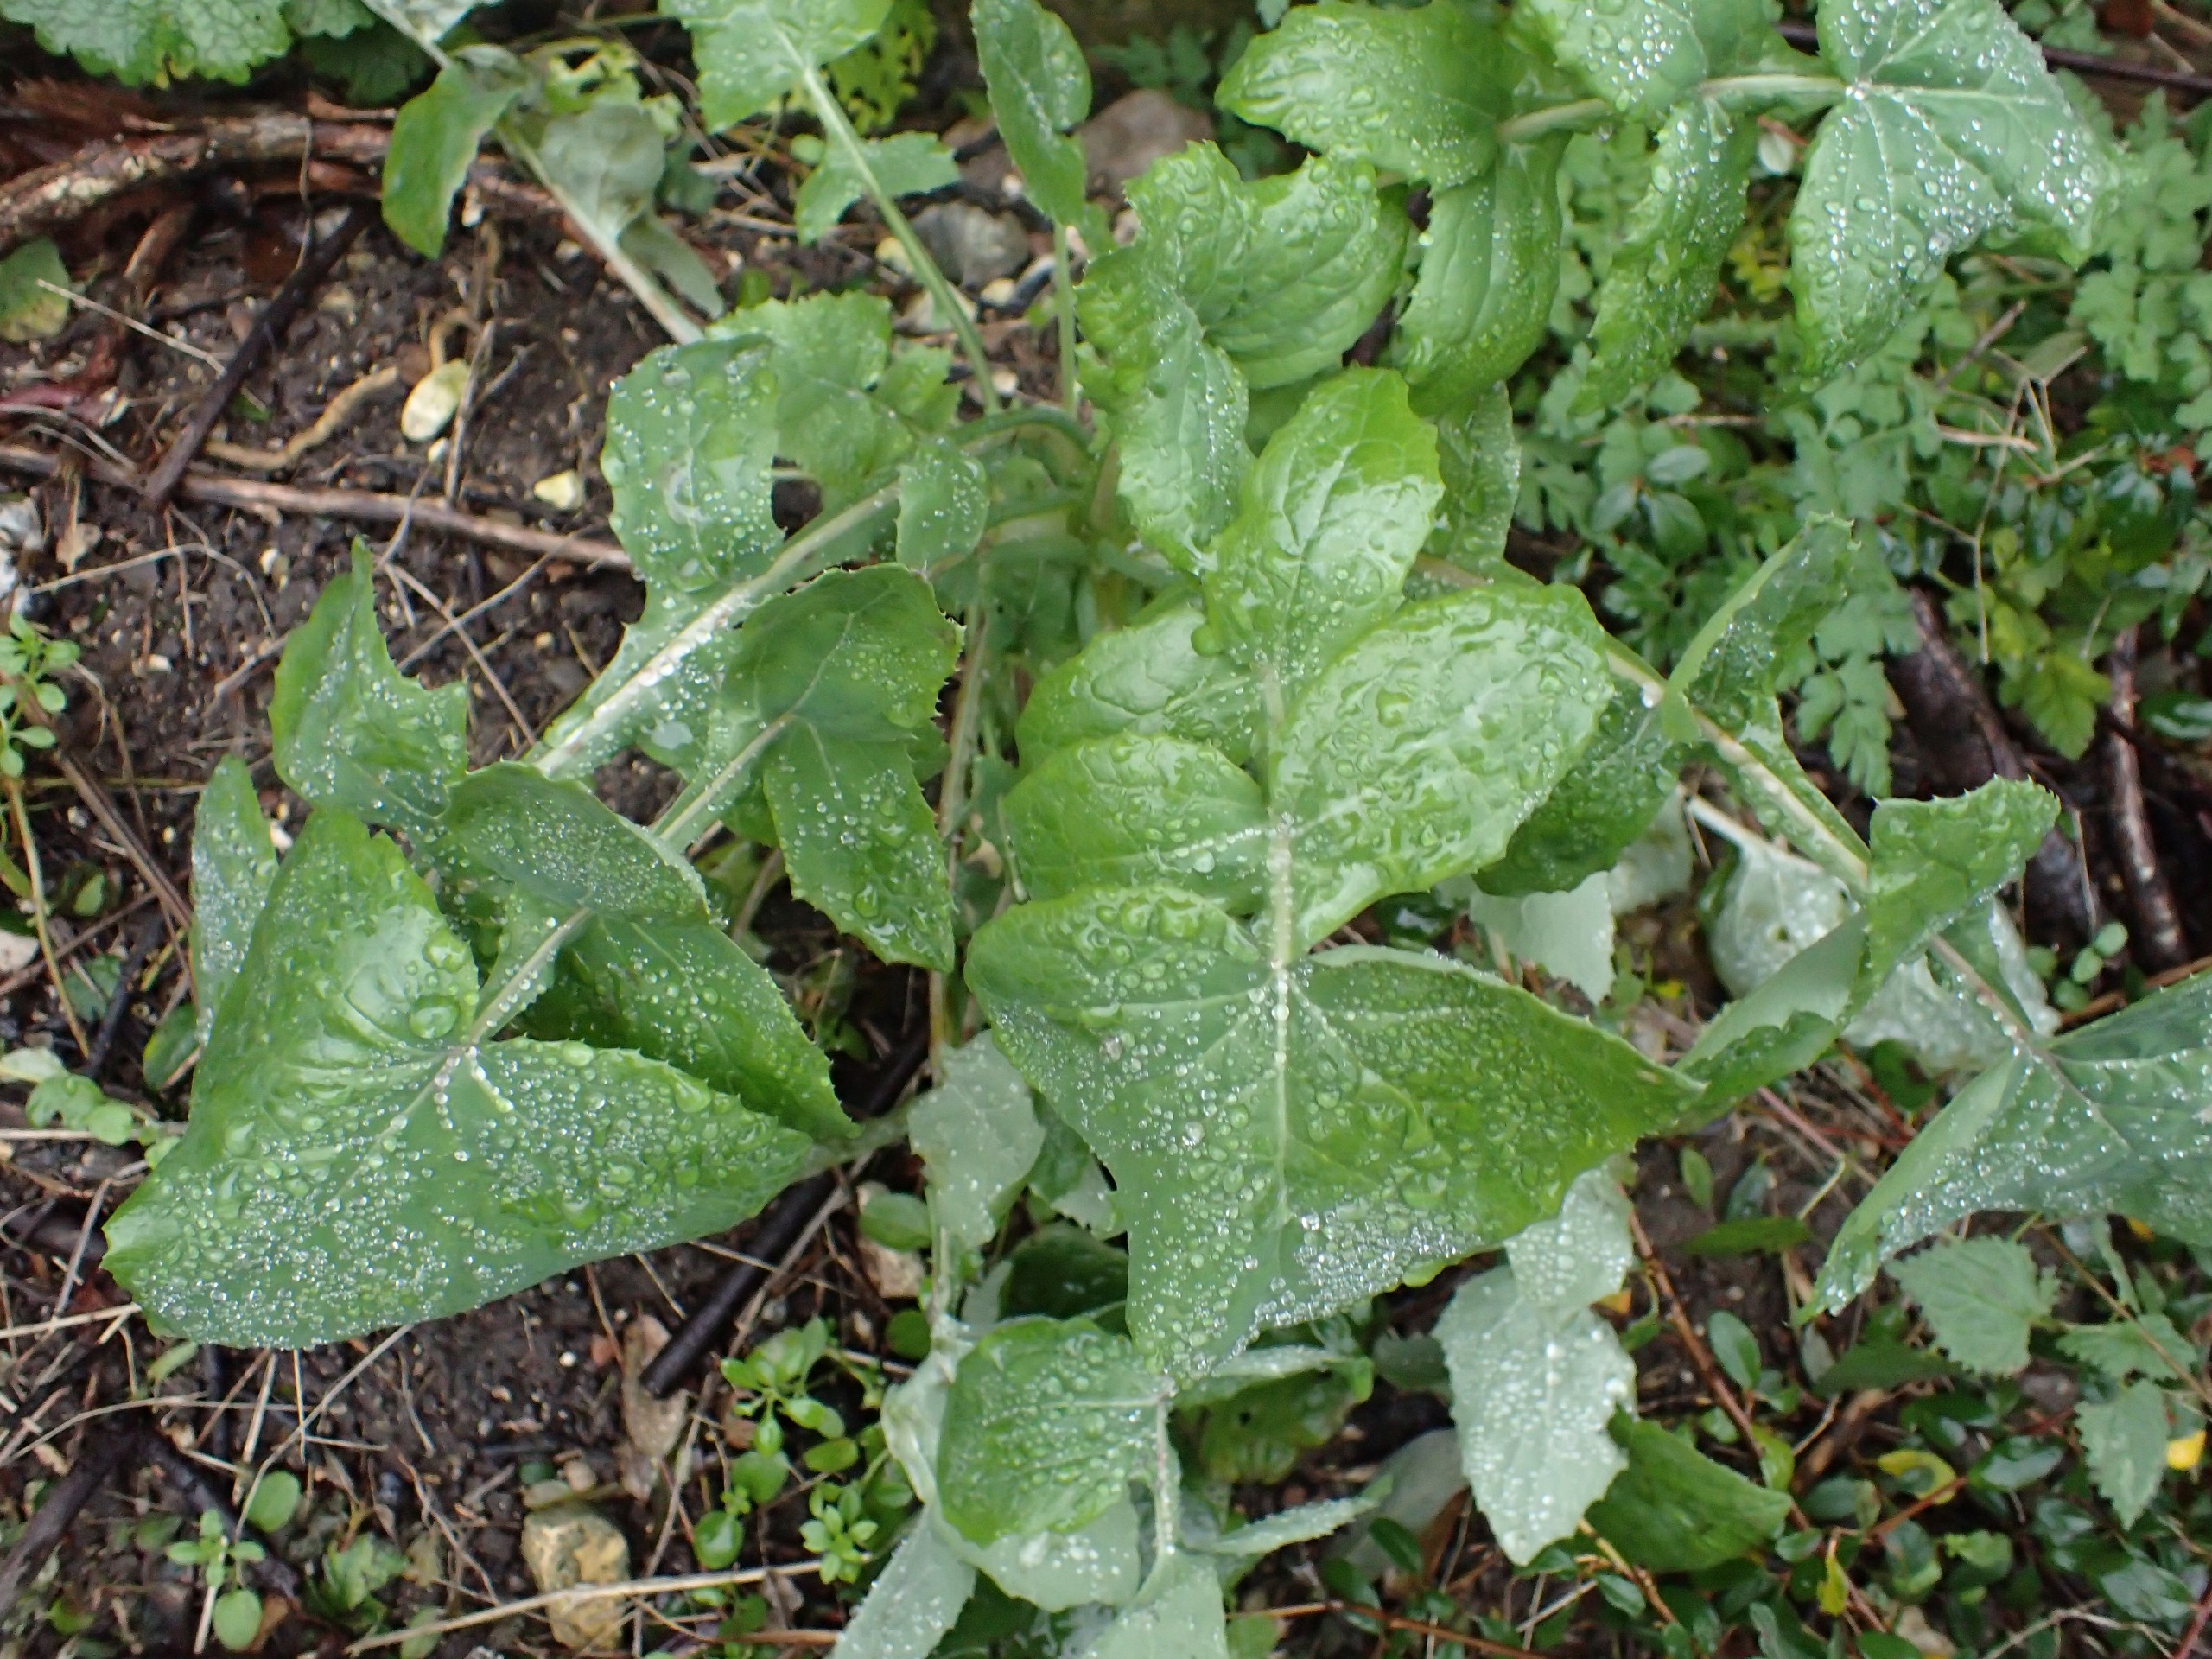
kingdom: Plantae
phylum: Tracheophyta
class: Magnoliopsida
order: Asterales
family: Asteraceae
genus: Sonchus
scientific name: Sonchus oleraceus
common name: Almindelig svinemælk
